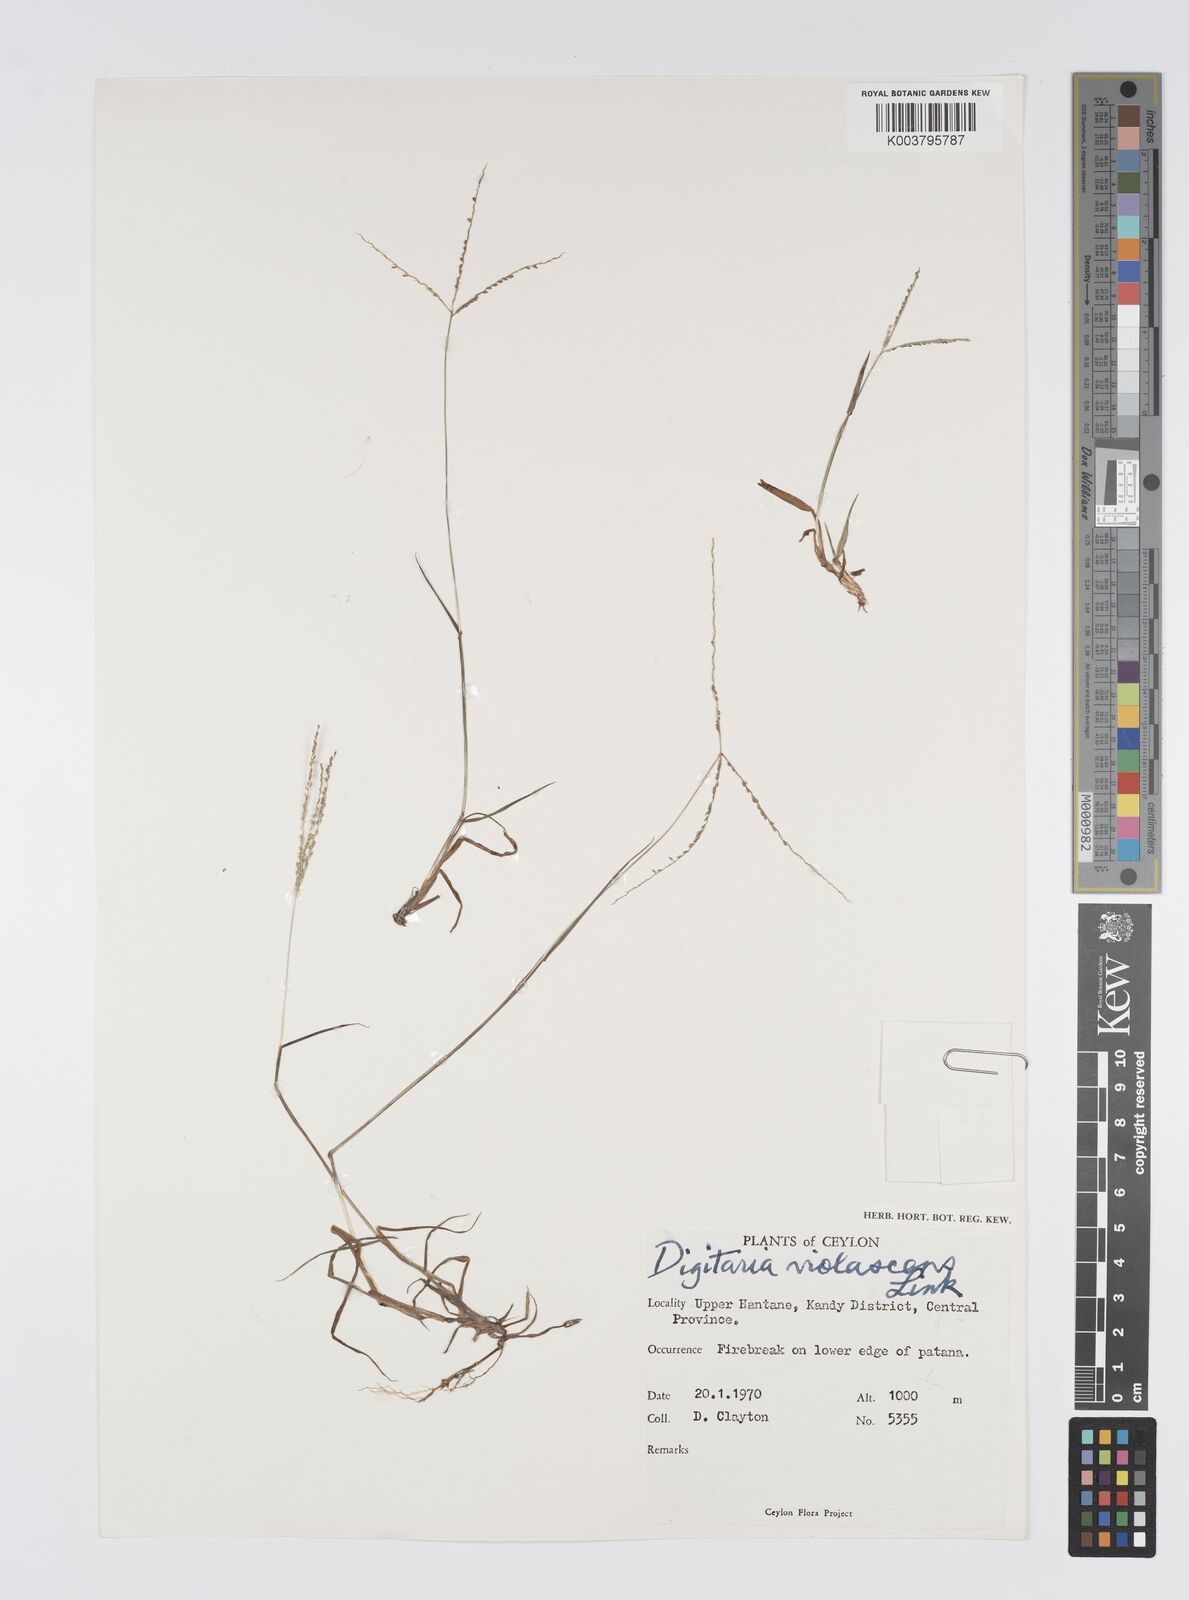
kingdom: Plantae
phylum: Tracheophyta
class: Liliopsida
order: Poales
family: Poaceae
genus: Digitaria
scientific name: Digitaria violascens
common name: Violet crabgrass
